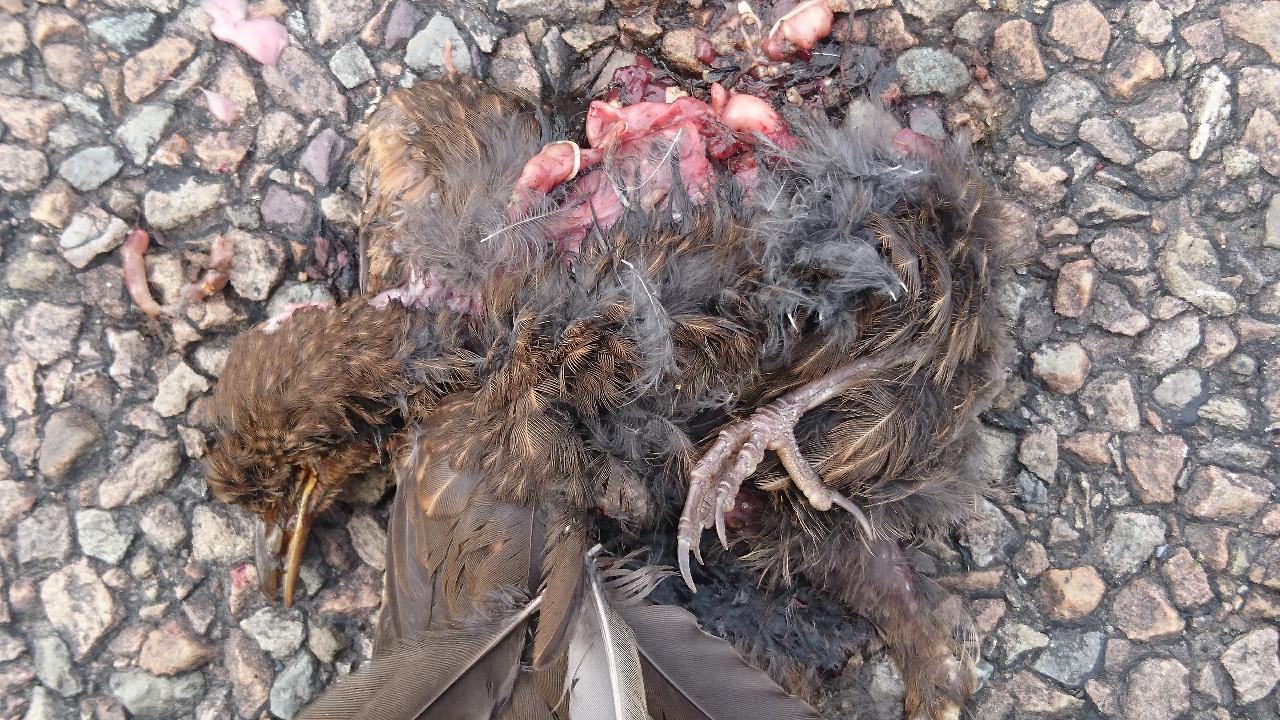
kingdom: Animalia
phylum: Chordata
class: Aves
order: Passeriformes
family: Muscicapidae
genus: Erithacus
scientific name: Erithacus rubecula
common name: European robin
